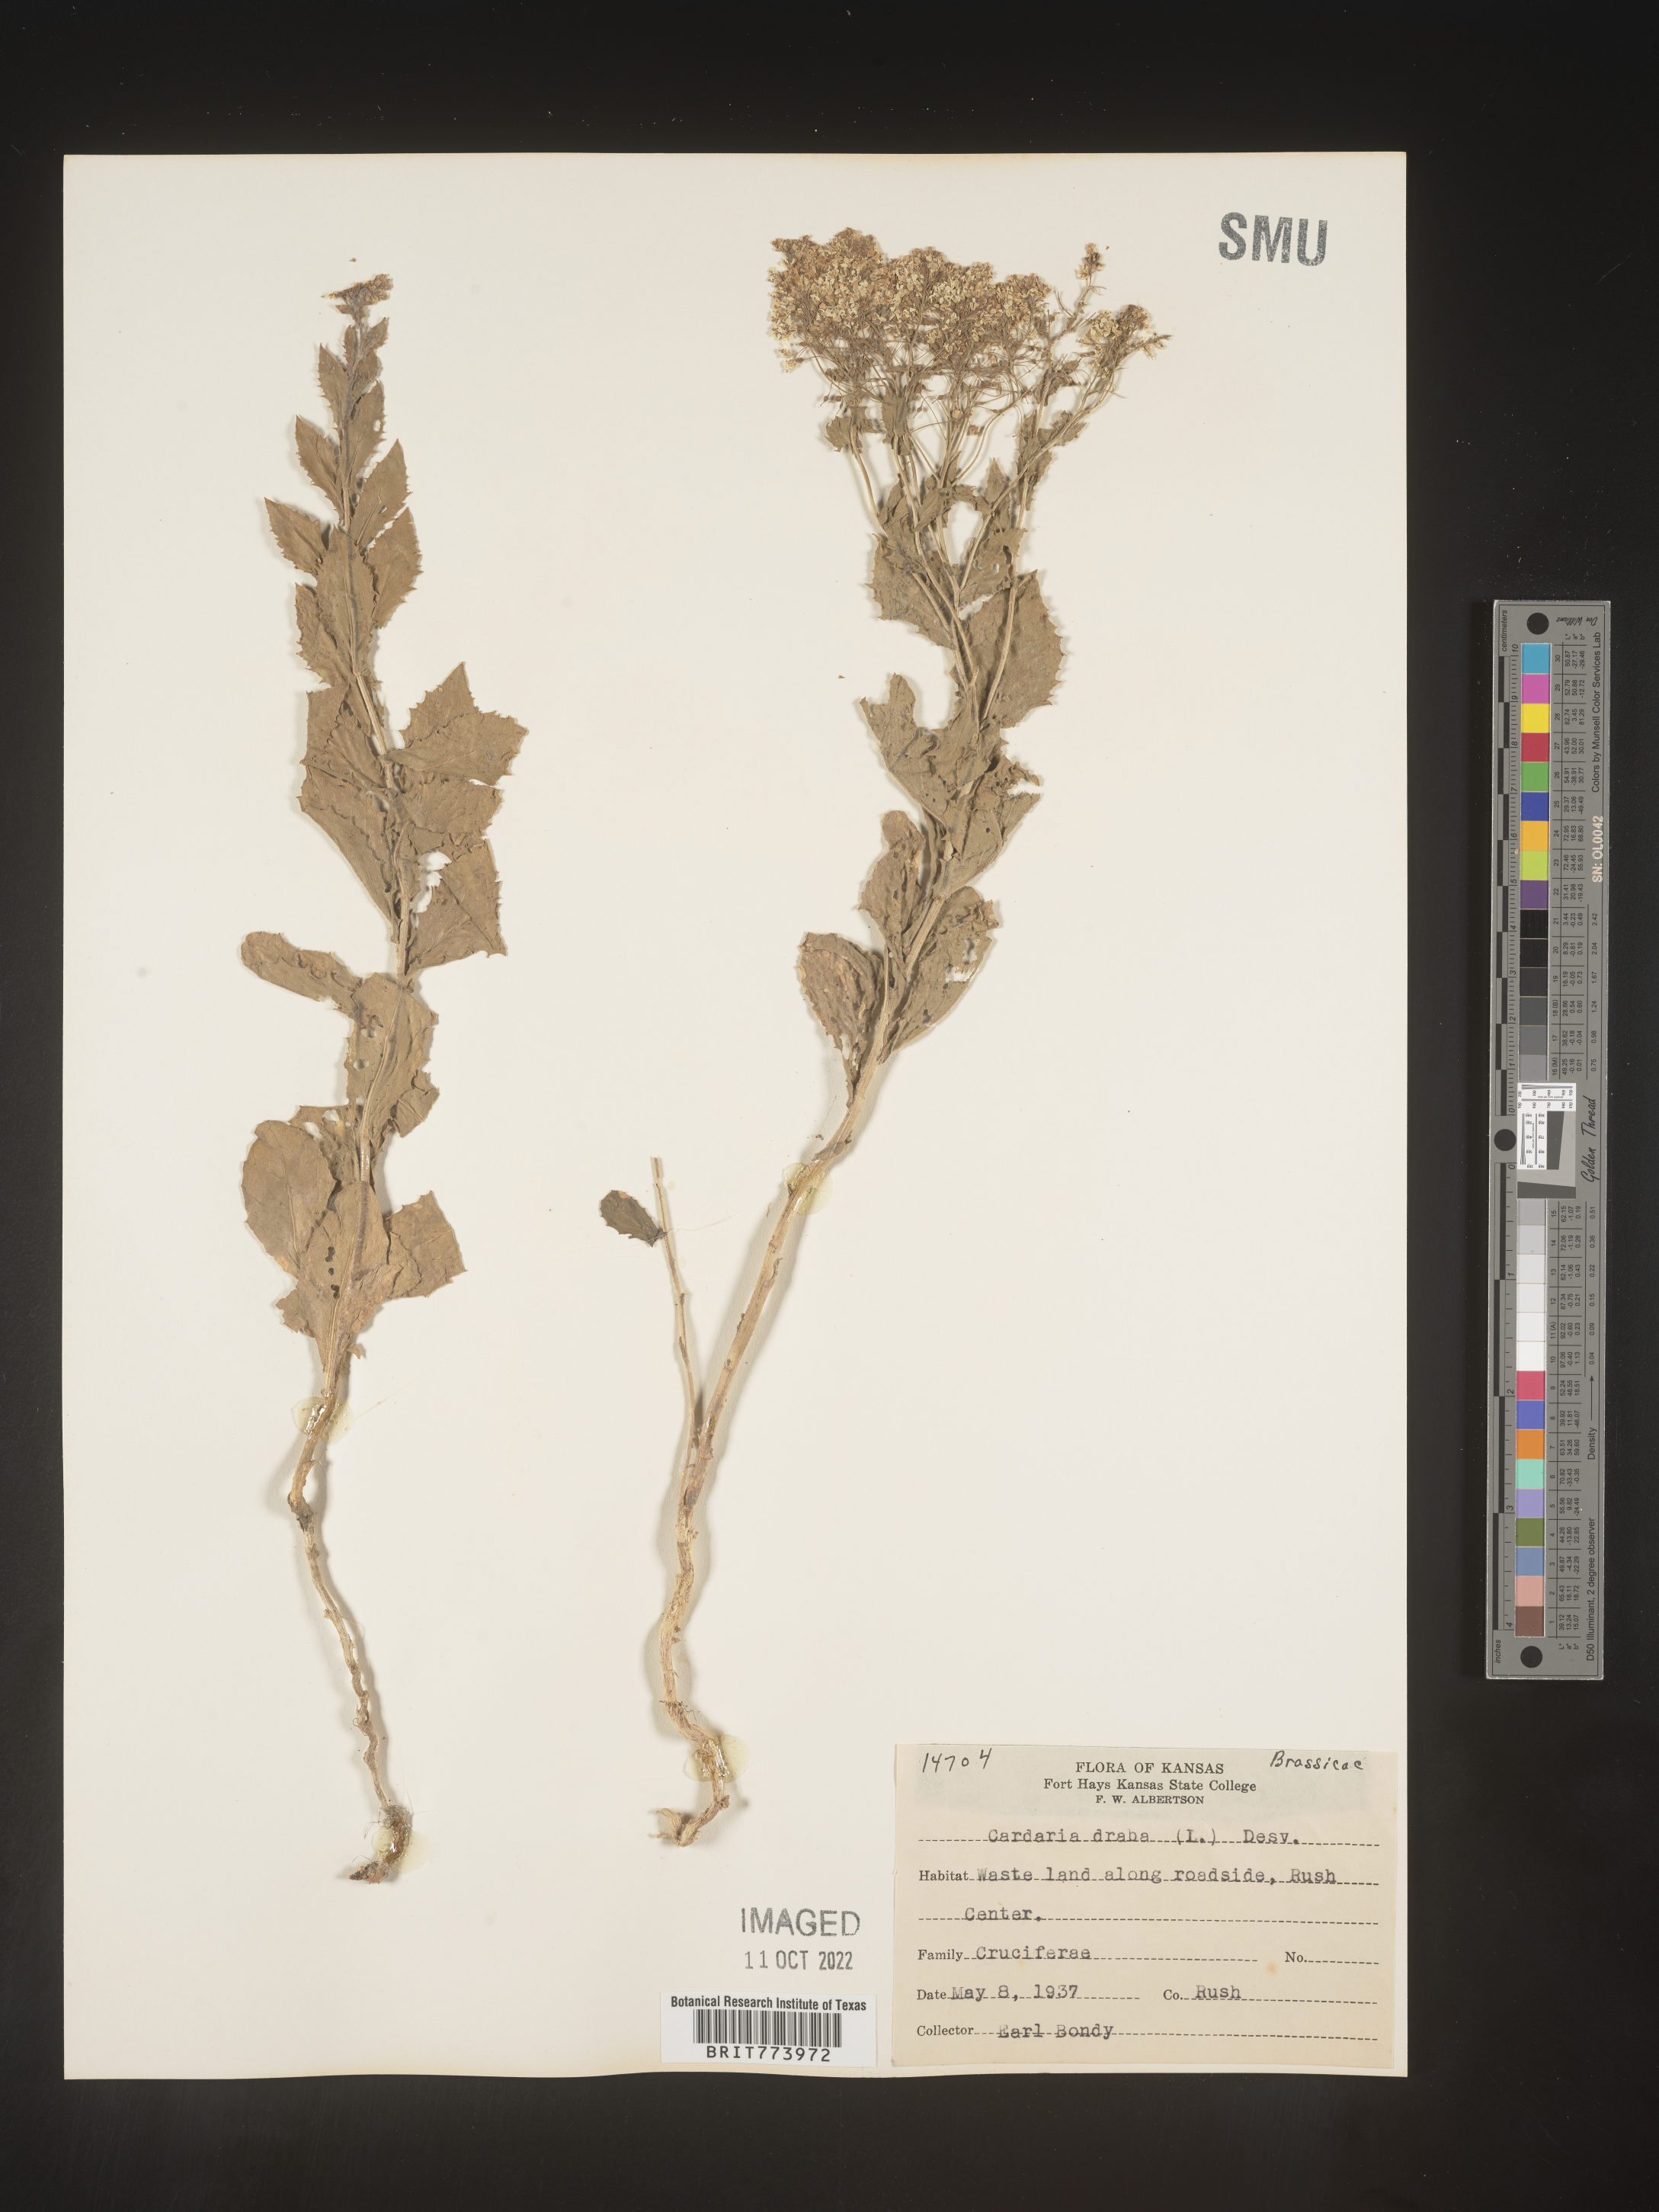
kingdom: Plantae
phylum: Tracheophyta
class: Magnoliopsida
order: Brassicales
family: Brassicaceae
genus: Lepidium
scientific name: Lepidium draba
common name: Hoary cress
